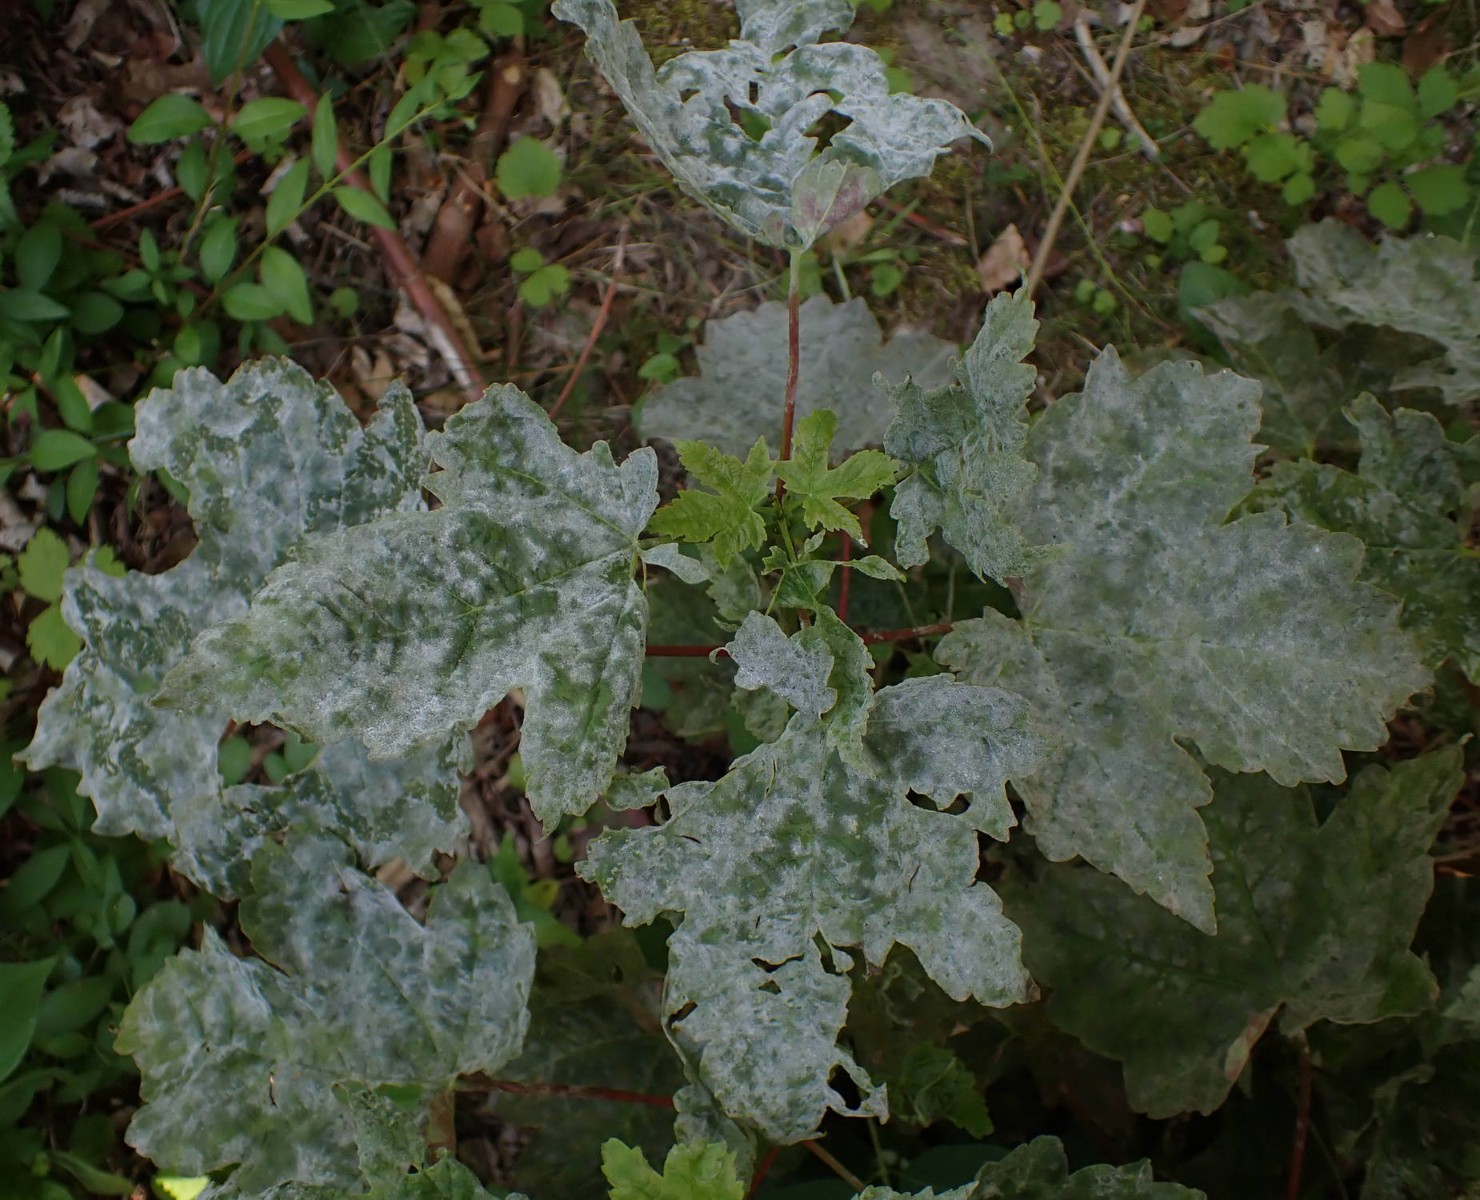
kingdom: Fungi
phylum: Ascomycota
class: Leotiomycetes
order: Helotiales
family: Erysiphaceae
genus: Sawadaea
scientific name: Sawadaea bicornis
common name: Maple mildew
